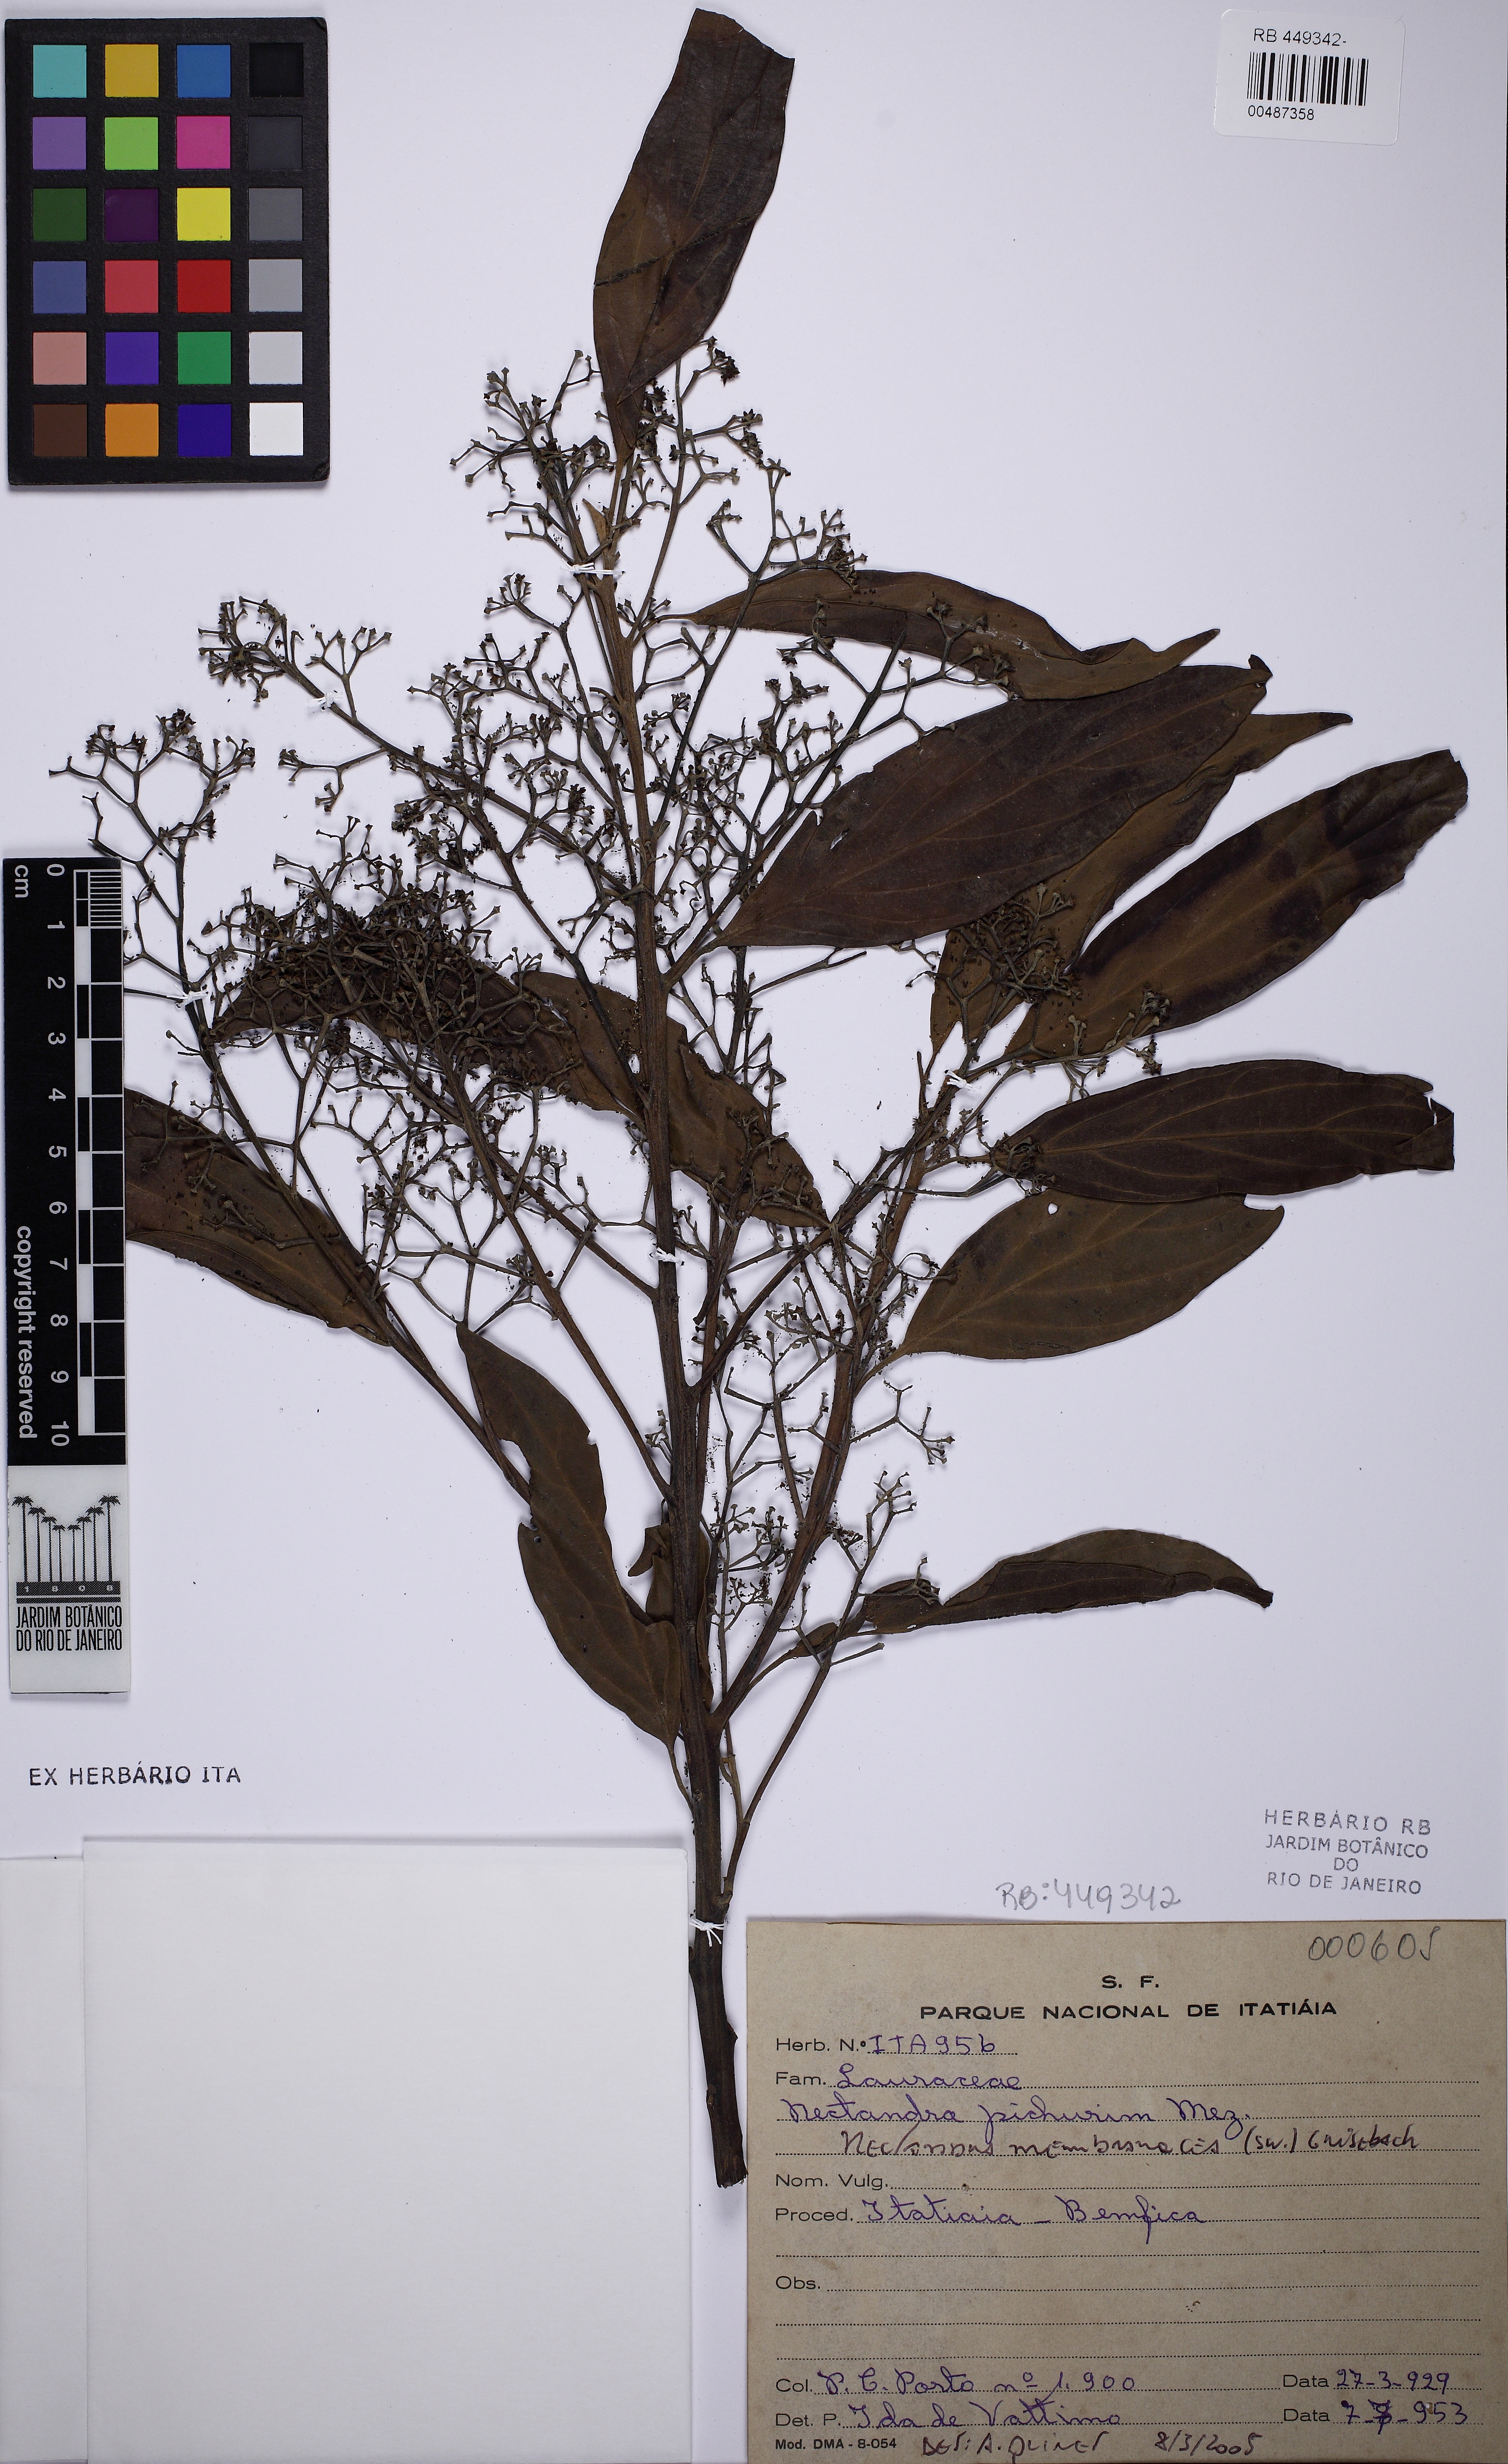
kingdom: Plantae
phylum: Tracheophyta
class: Magnoliopsida
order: Laurales
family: Lauraceae
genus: Nectandra
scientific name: Nectandra membranacea
